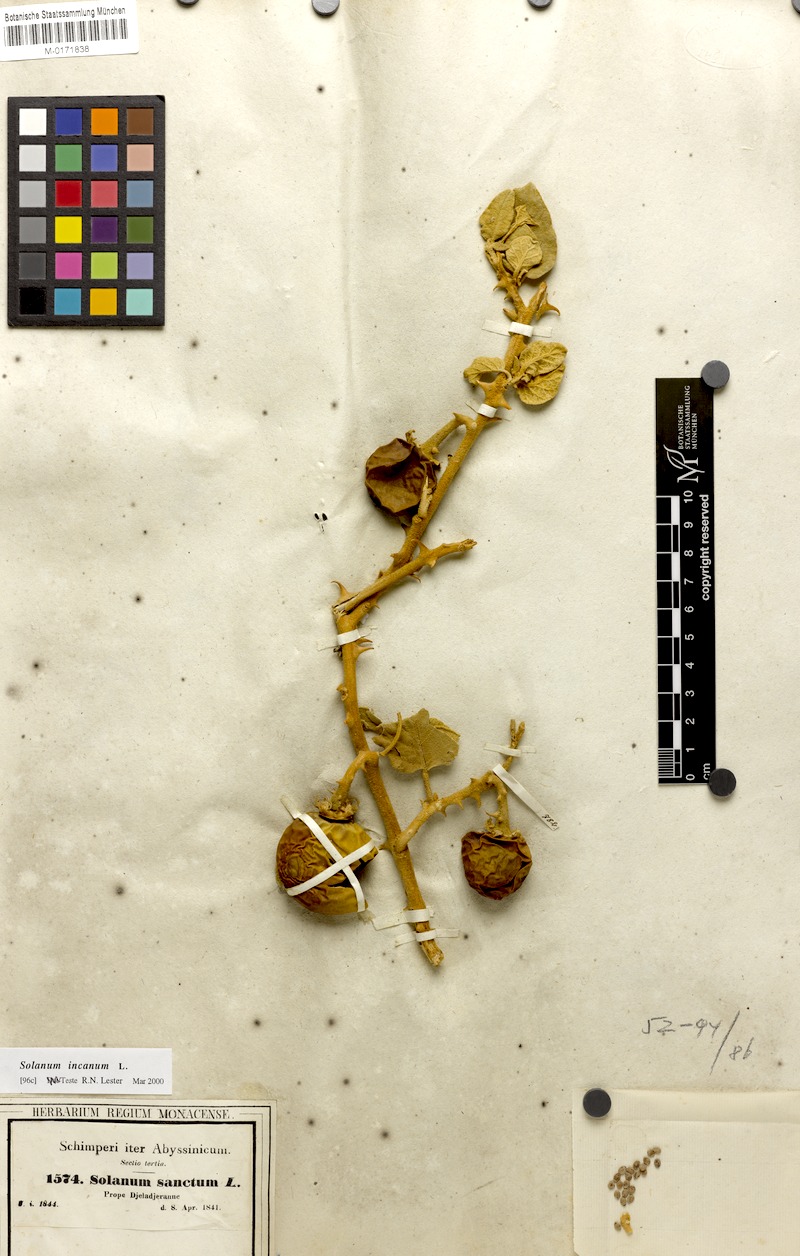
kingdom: Plantae
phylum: Tracheophyta
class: Magnoliopsida
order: Solanales
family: Solanaceae
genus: Solanum
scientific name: Solanum incanum
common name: Bitter apple
